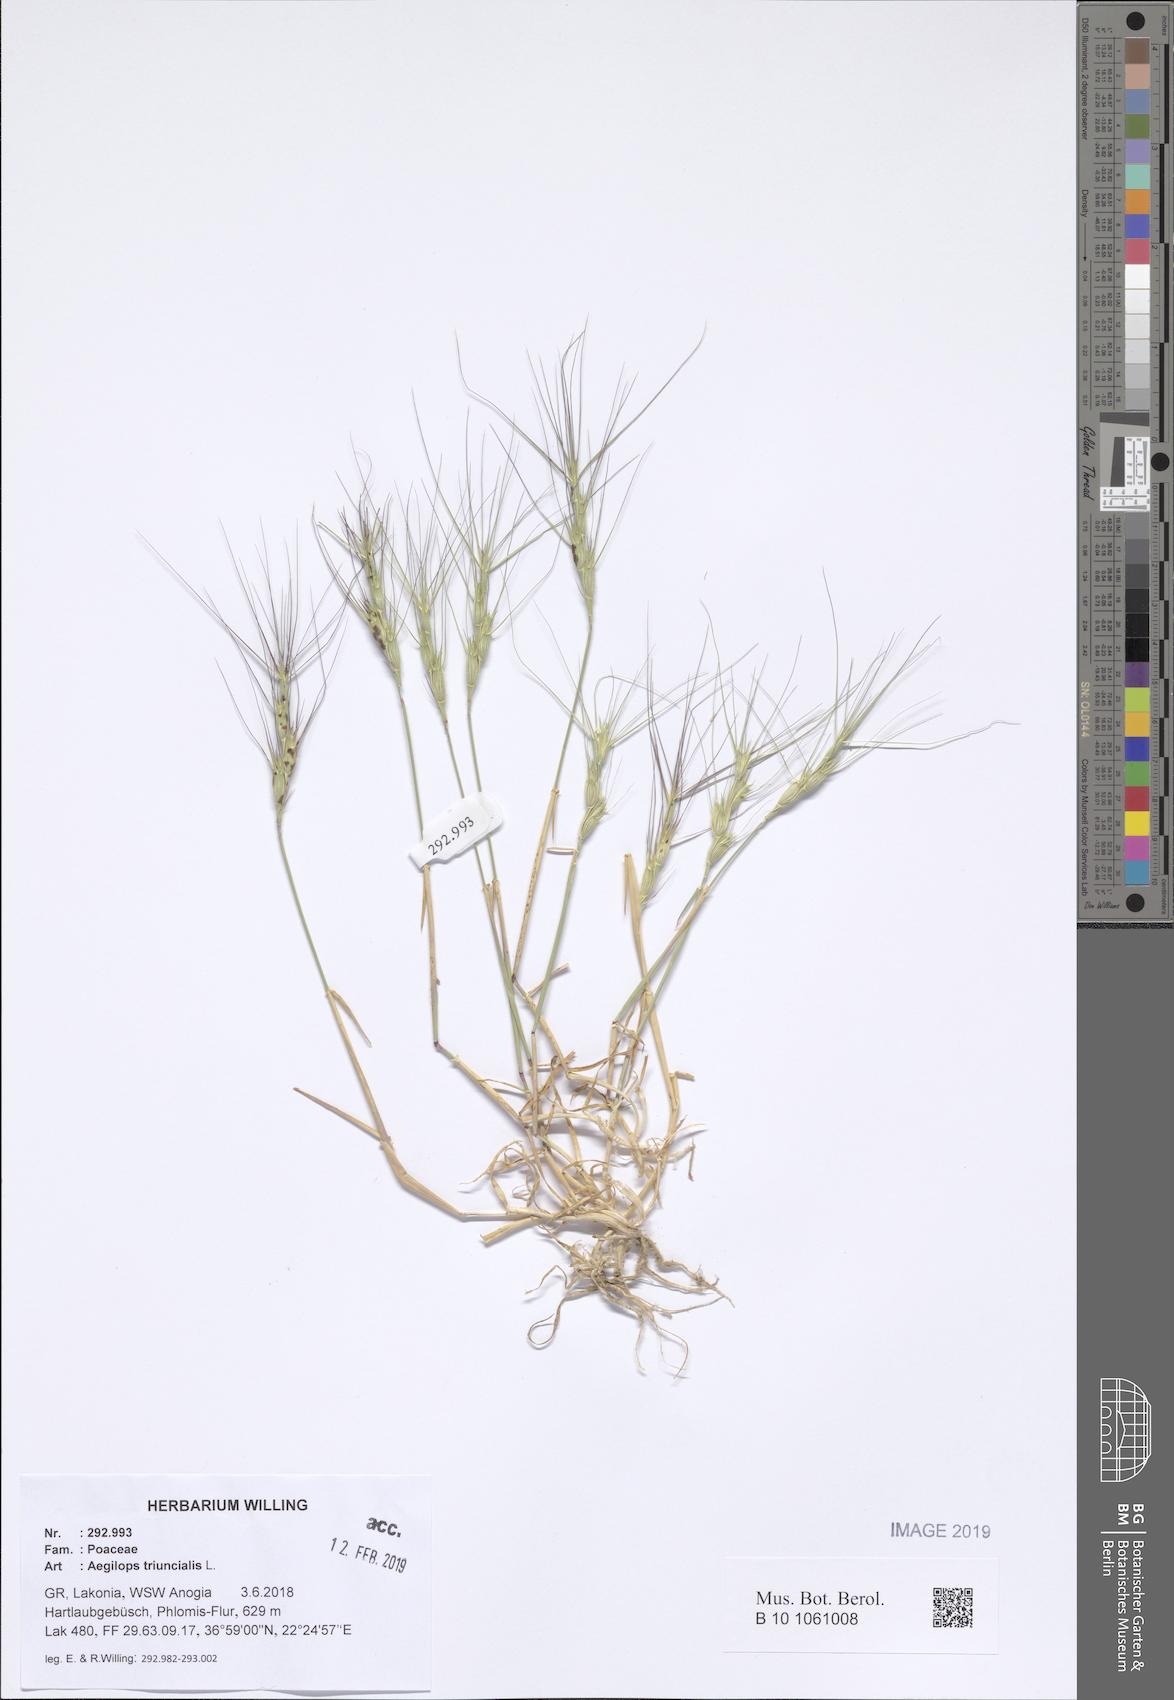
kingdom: Plantae
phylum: Tracheophyta
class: Liliopsida
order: Poales
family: Poaceae
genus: Aegilops
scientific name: Aegilops triuncialis
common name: Barb goat grass
